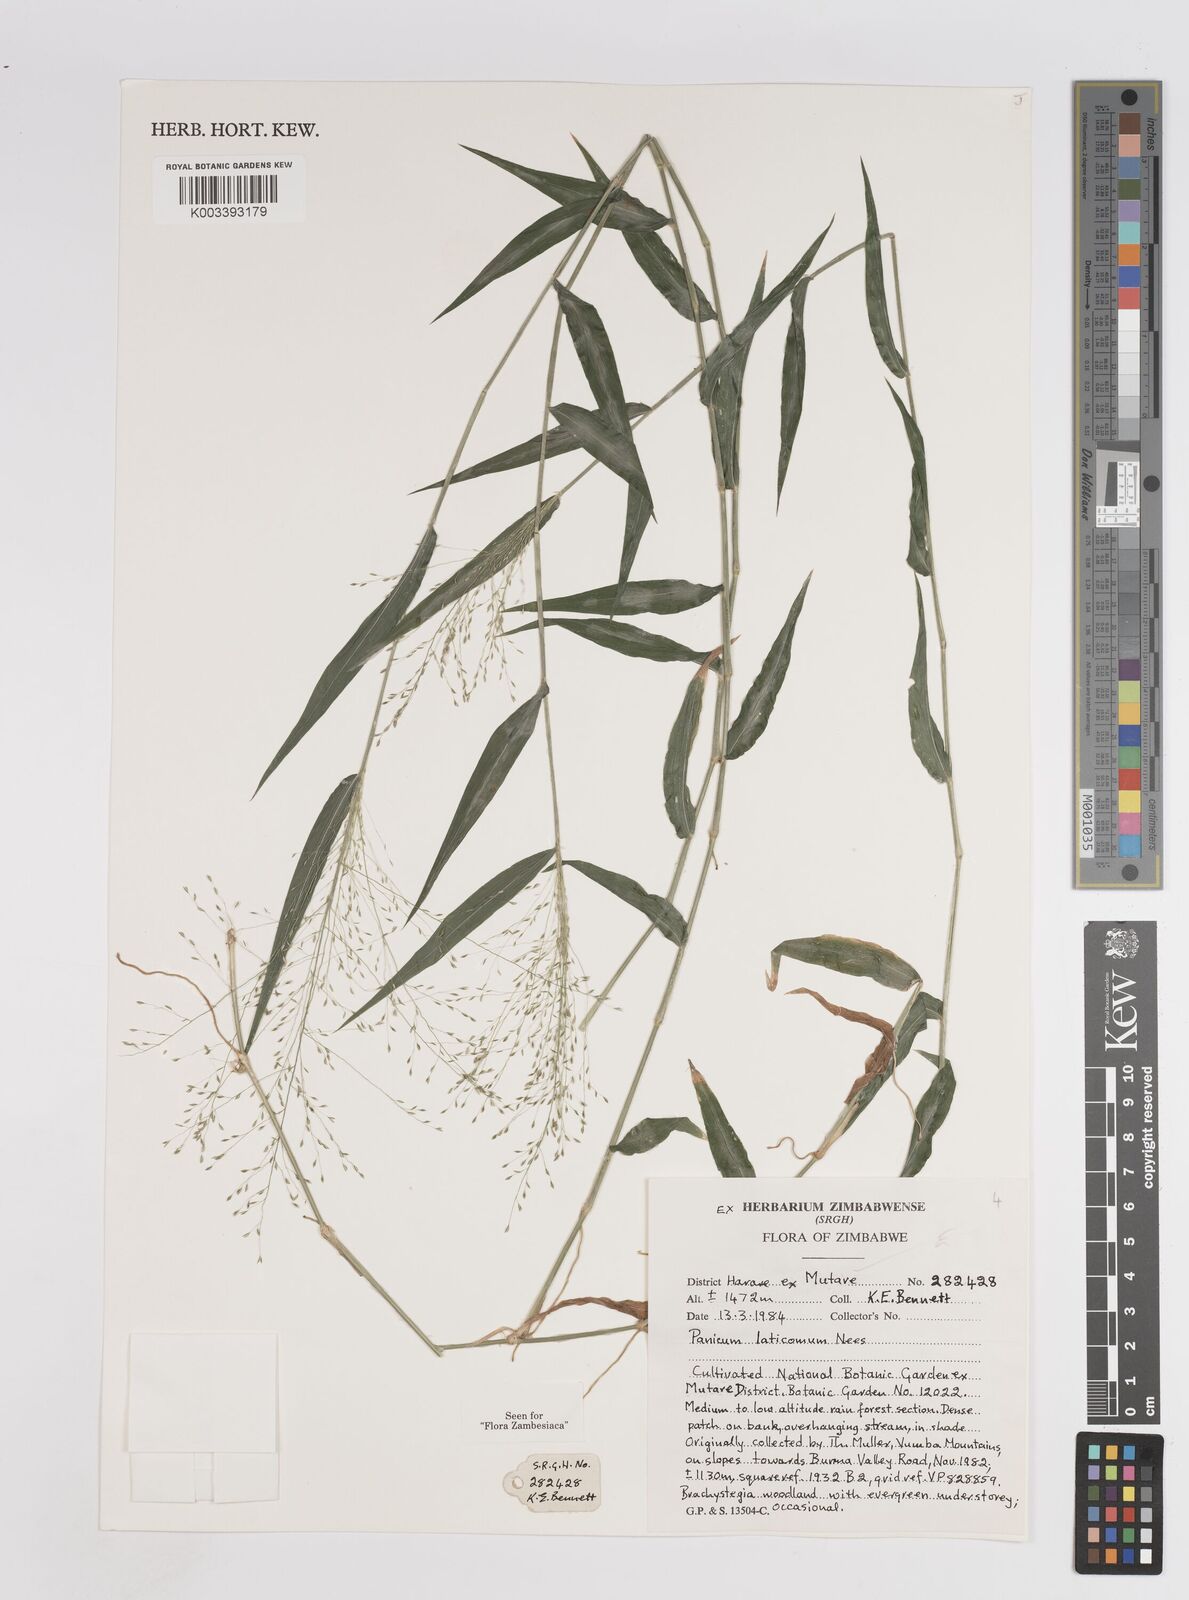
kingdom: Plantae
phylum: Tracheophyta
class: Liliopsida
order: Poales
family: Poaceae
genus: Panicum
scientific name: Panicum laticomum
